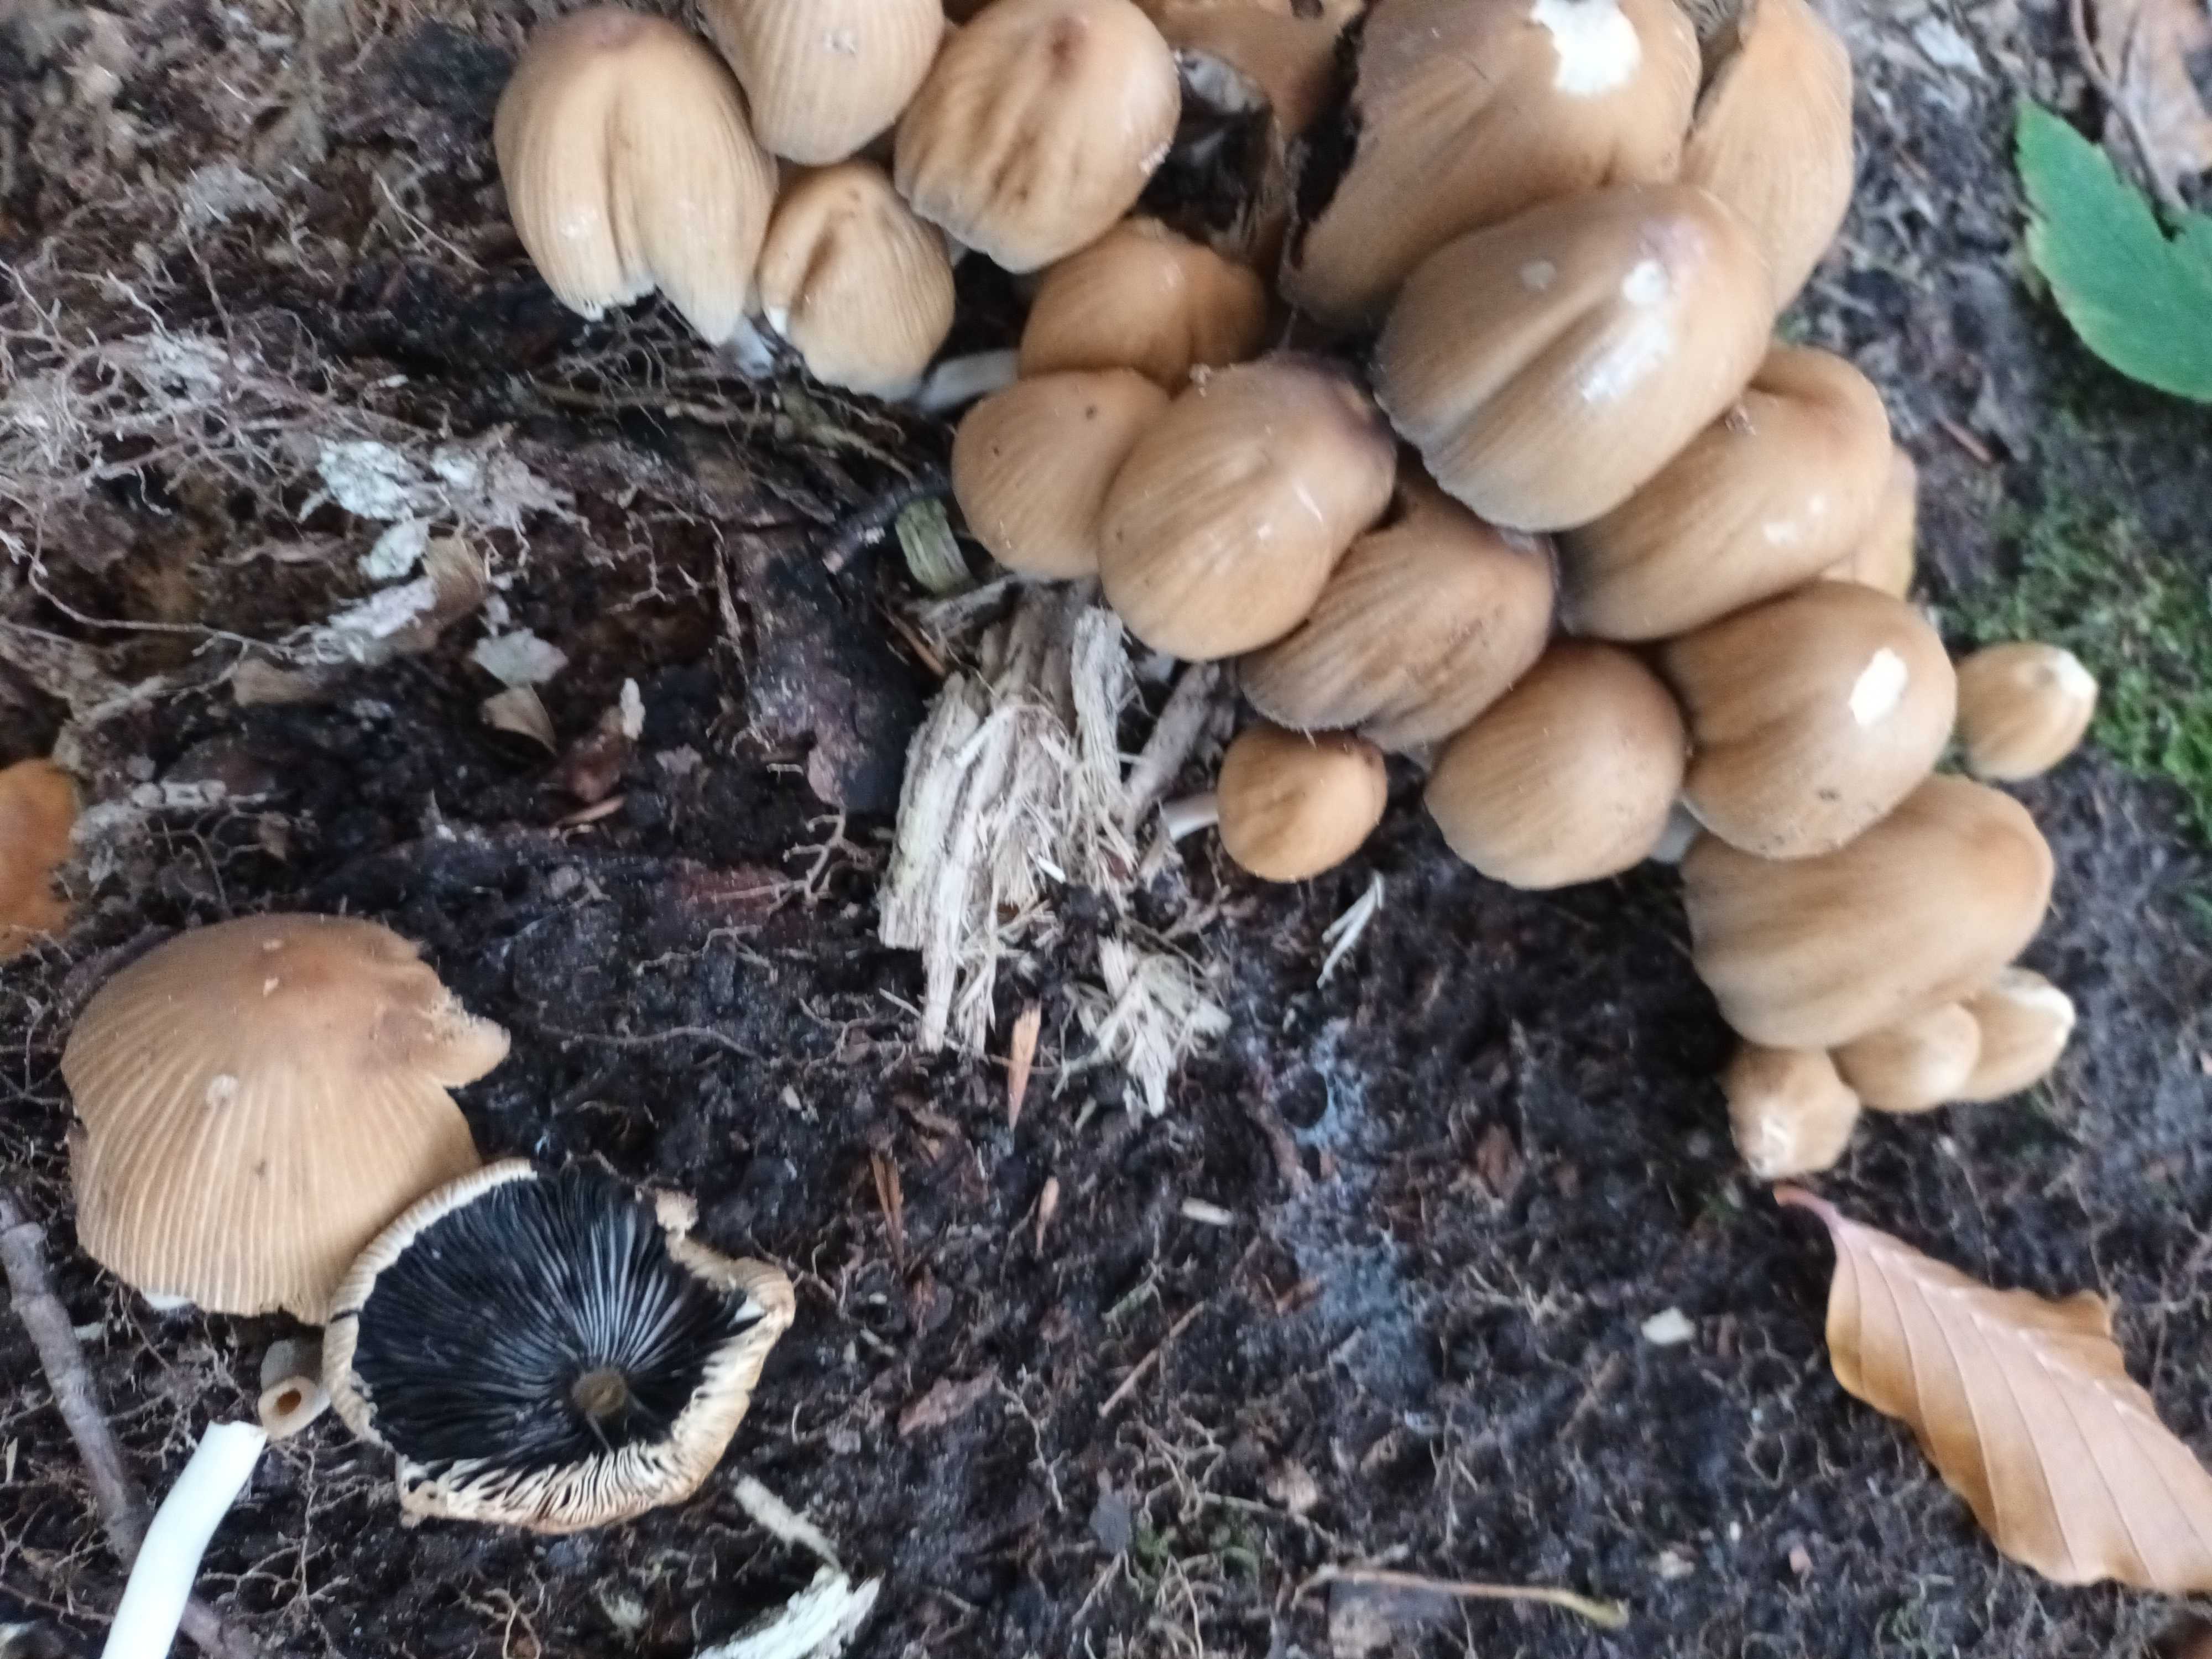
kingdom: Fungi
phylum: Basidiomycota
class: Agaricomycetes
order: Agaricales
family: Psathyrellaceae
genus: Coprinellus
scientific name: Coprinellus
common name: blækhat
